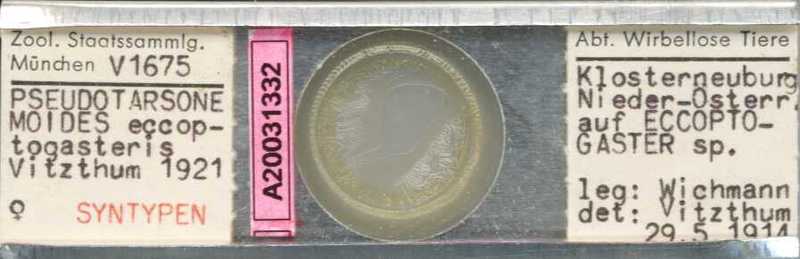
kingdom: Animalia
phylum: Arthropoda
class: Arachnida
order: Trombidiformes
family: Tarsonemidae
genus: Pseudotarsonemoides
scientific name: Pseudotarsonemoides eccoptogasteris
